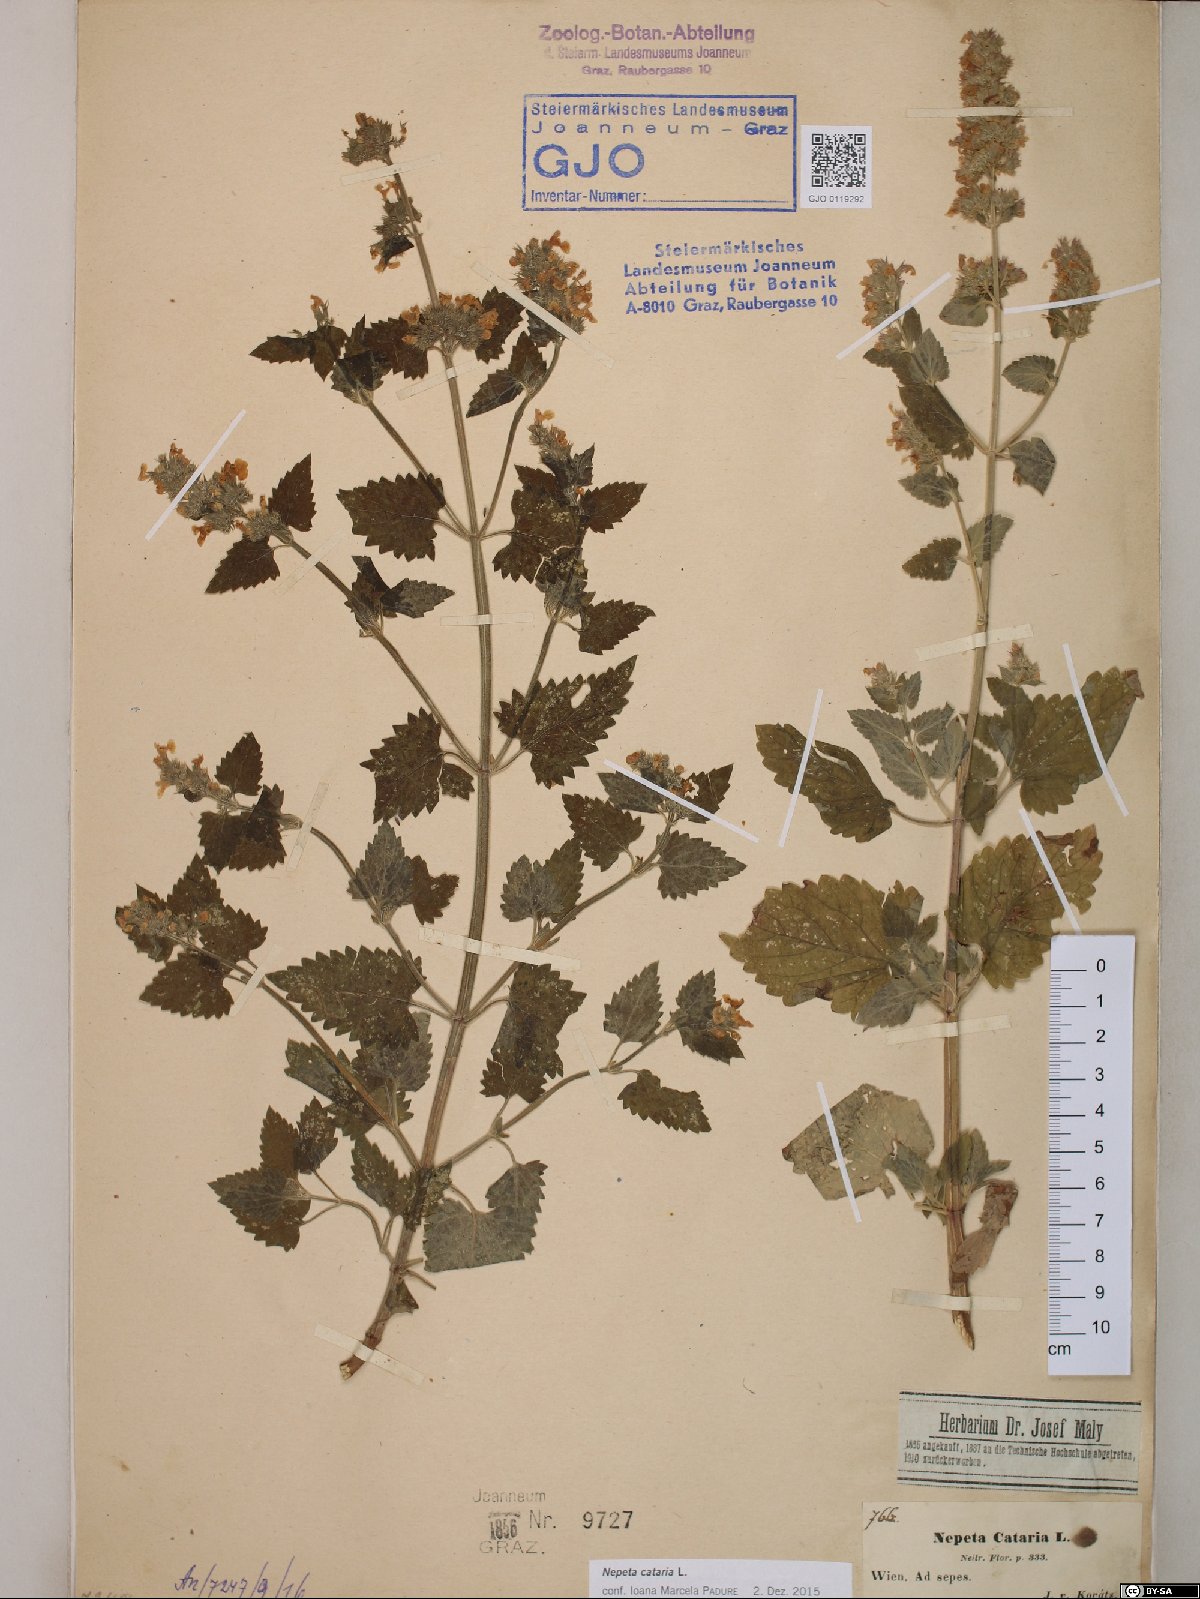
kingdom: Plantae
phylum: Tracheophyta
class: Magnoliopsida
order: Lamiales
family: Lamiaceae
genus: Nepeta
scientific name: Nepeta cataria
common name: Catnip
